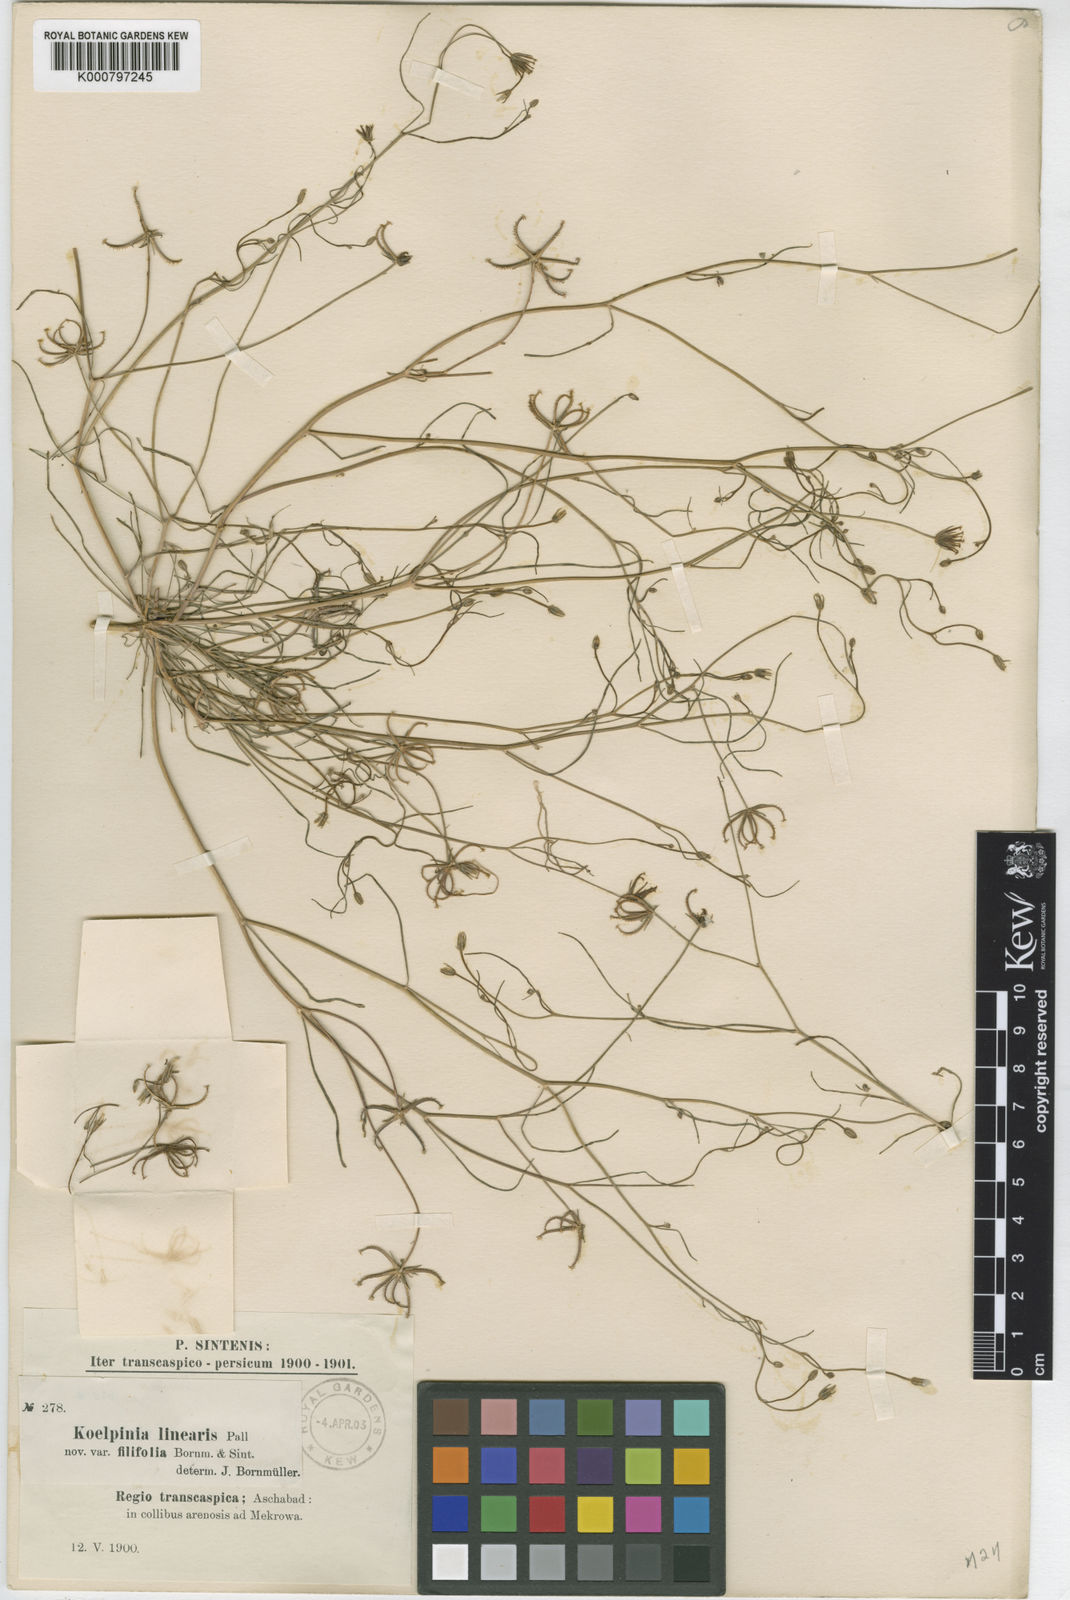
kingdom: Plantae
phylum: Tracheophyta
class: Magnoliopsida
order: Asterales
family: Asteraceae
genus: Koelpinia
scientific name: Koelpinia linearis
